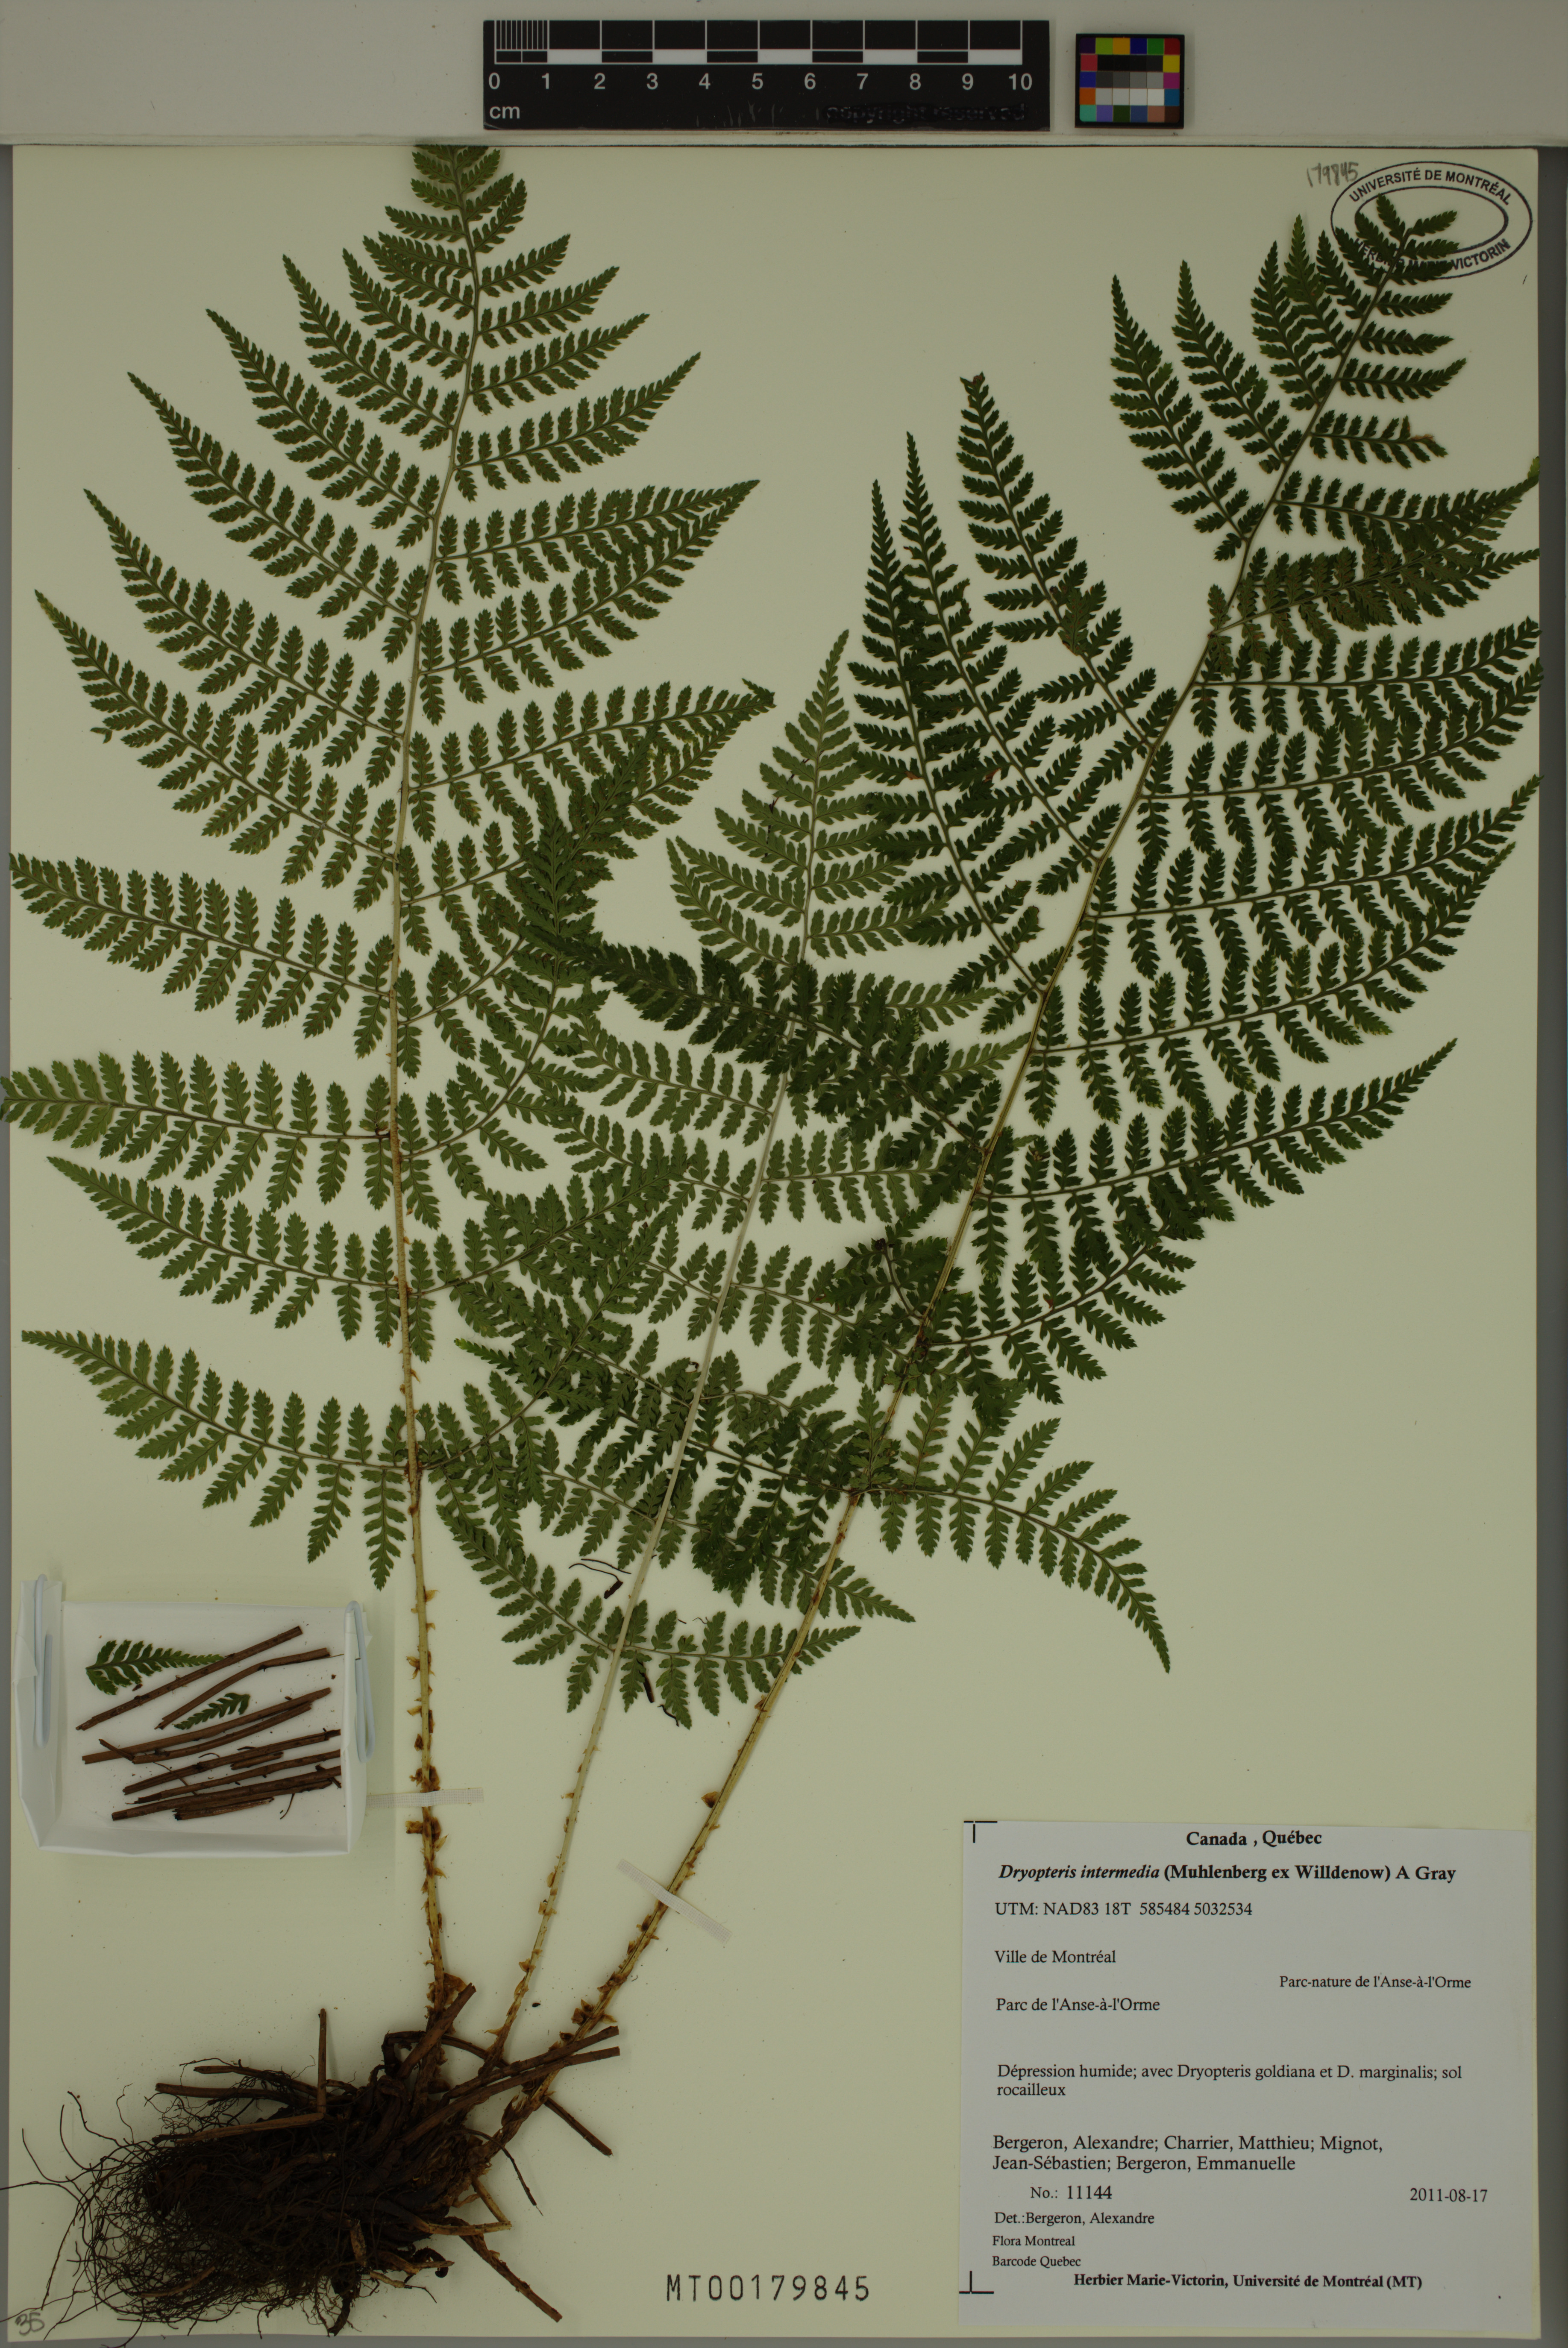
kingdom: Plantae
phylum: Tracheophyta
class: Polypodiopsida
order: Polypodiales
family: Dryopteridaceae
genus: Dryopteris
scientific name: Dryopteris intermedia
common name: Evergreen wood fern
